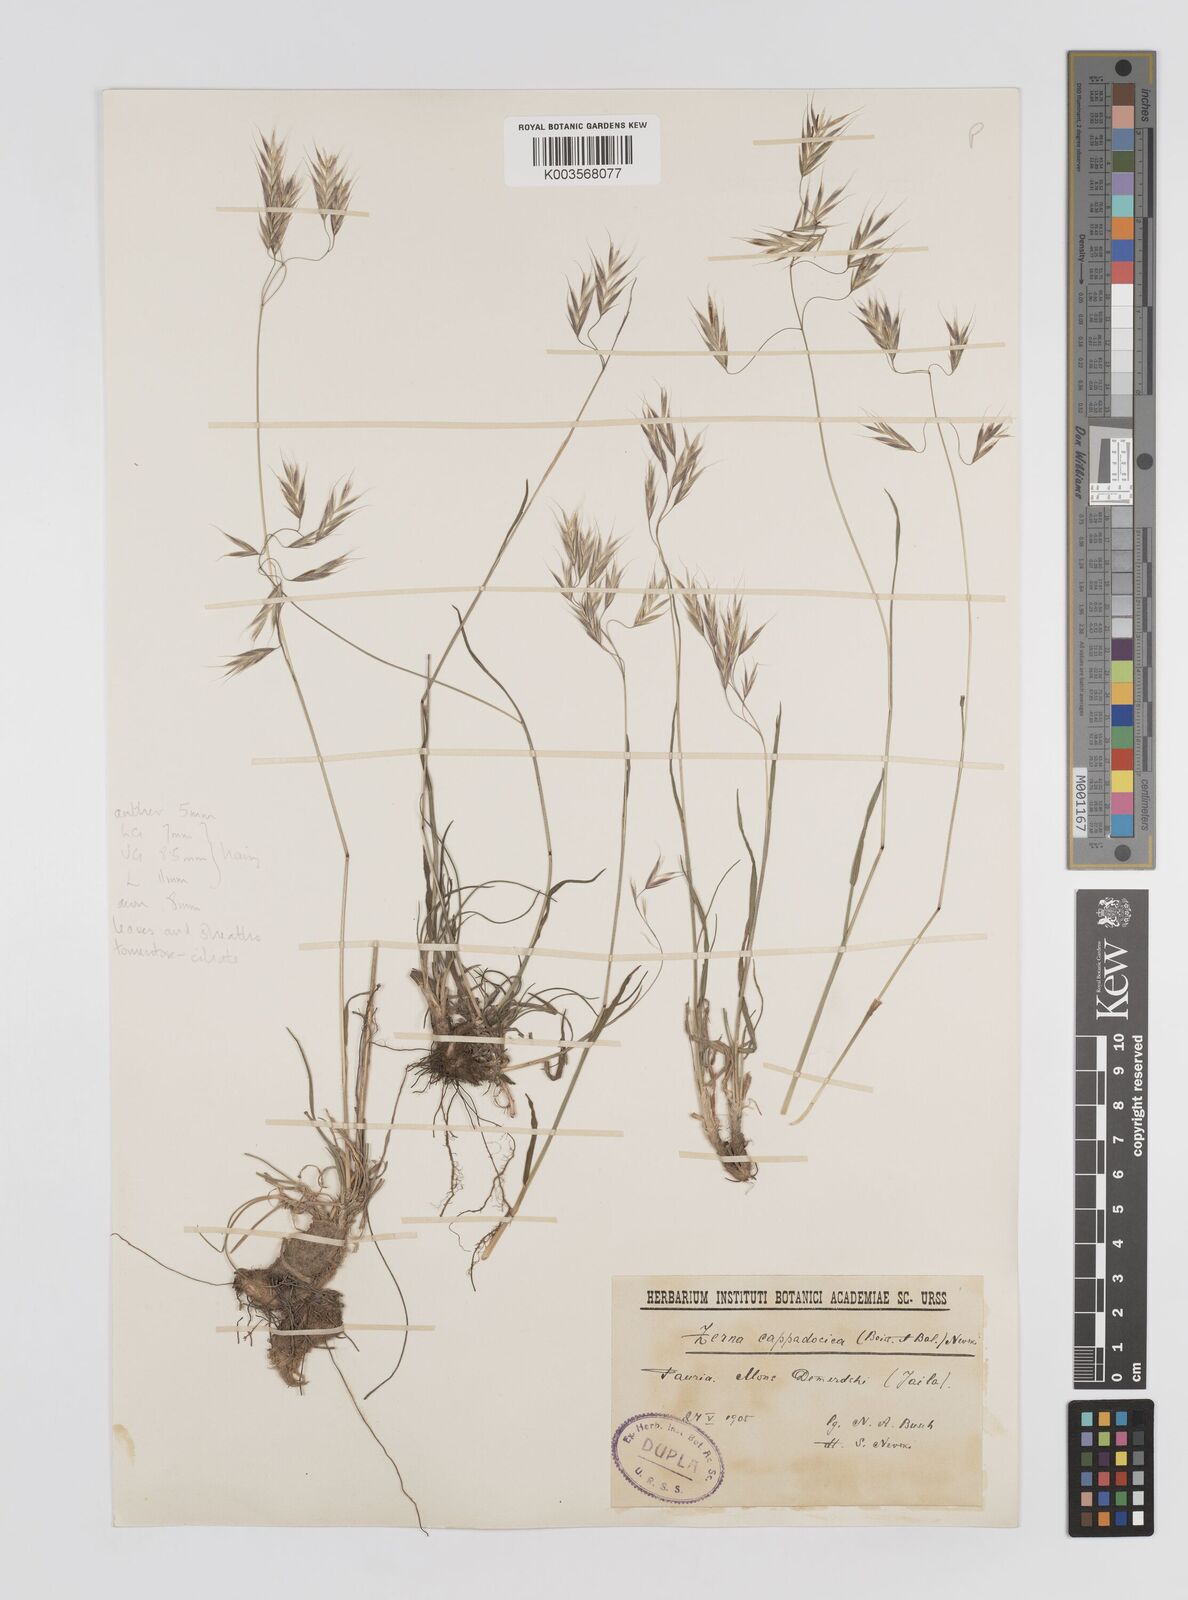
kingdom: Plantae
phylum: Tracheophyta
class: Liliopsida
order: Poales
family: Poaceae
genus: Bromus
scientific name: Bromus riparius
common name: Meadow brome
